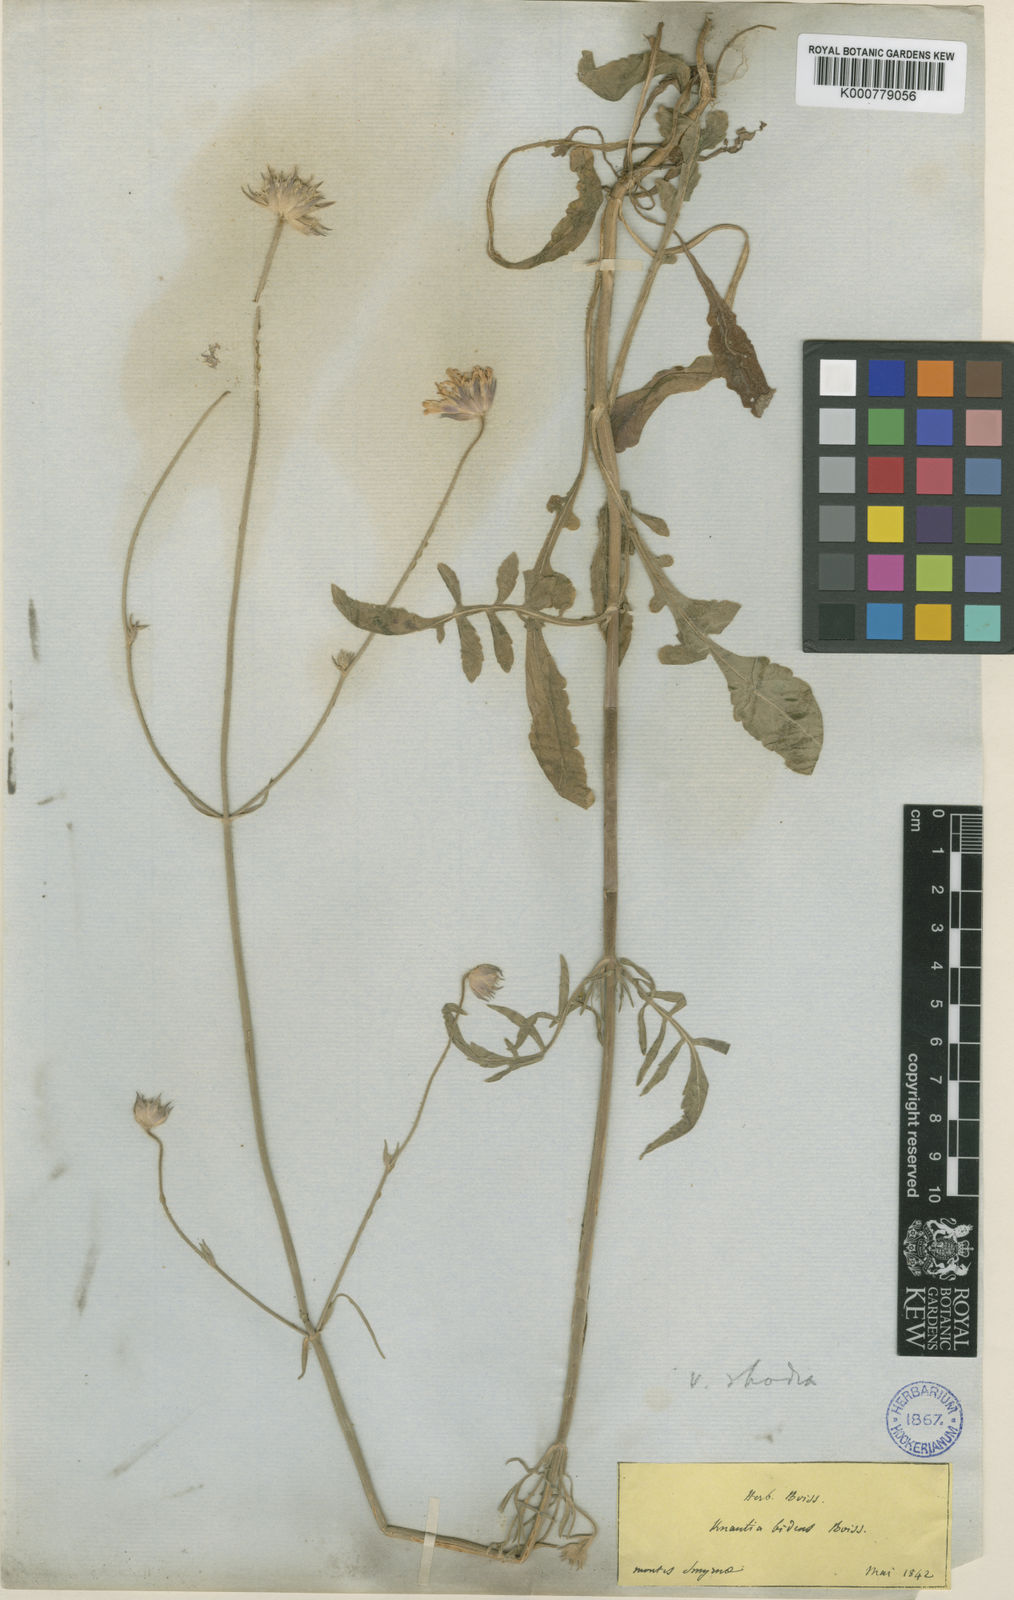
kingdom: Plantae
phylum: Tracheophyta
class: Magnoliopsida
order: Dipsacales
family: Caprifoliaceae
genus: Knautia
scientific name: Knautia
